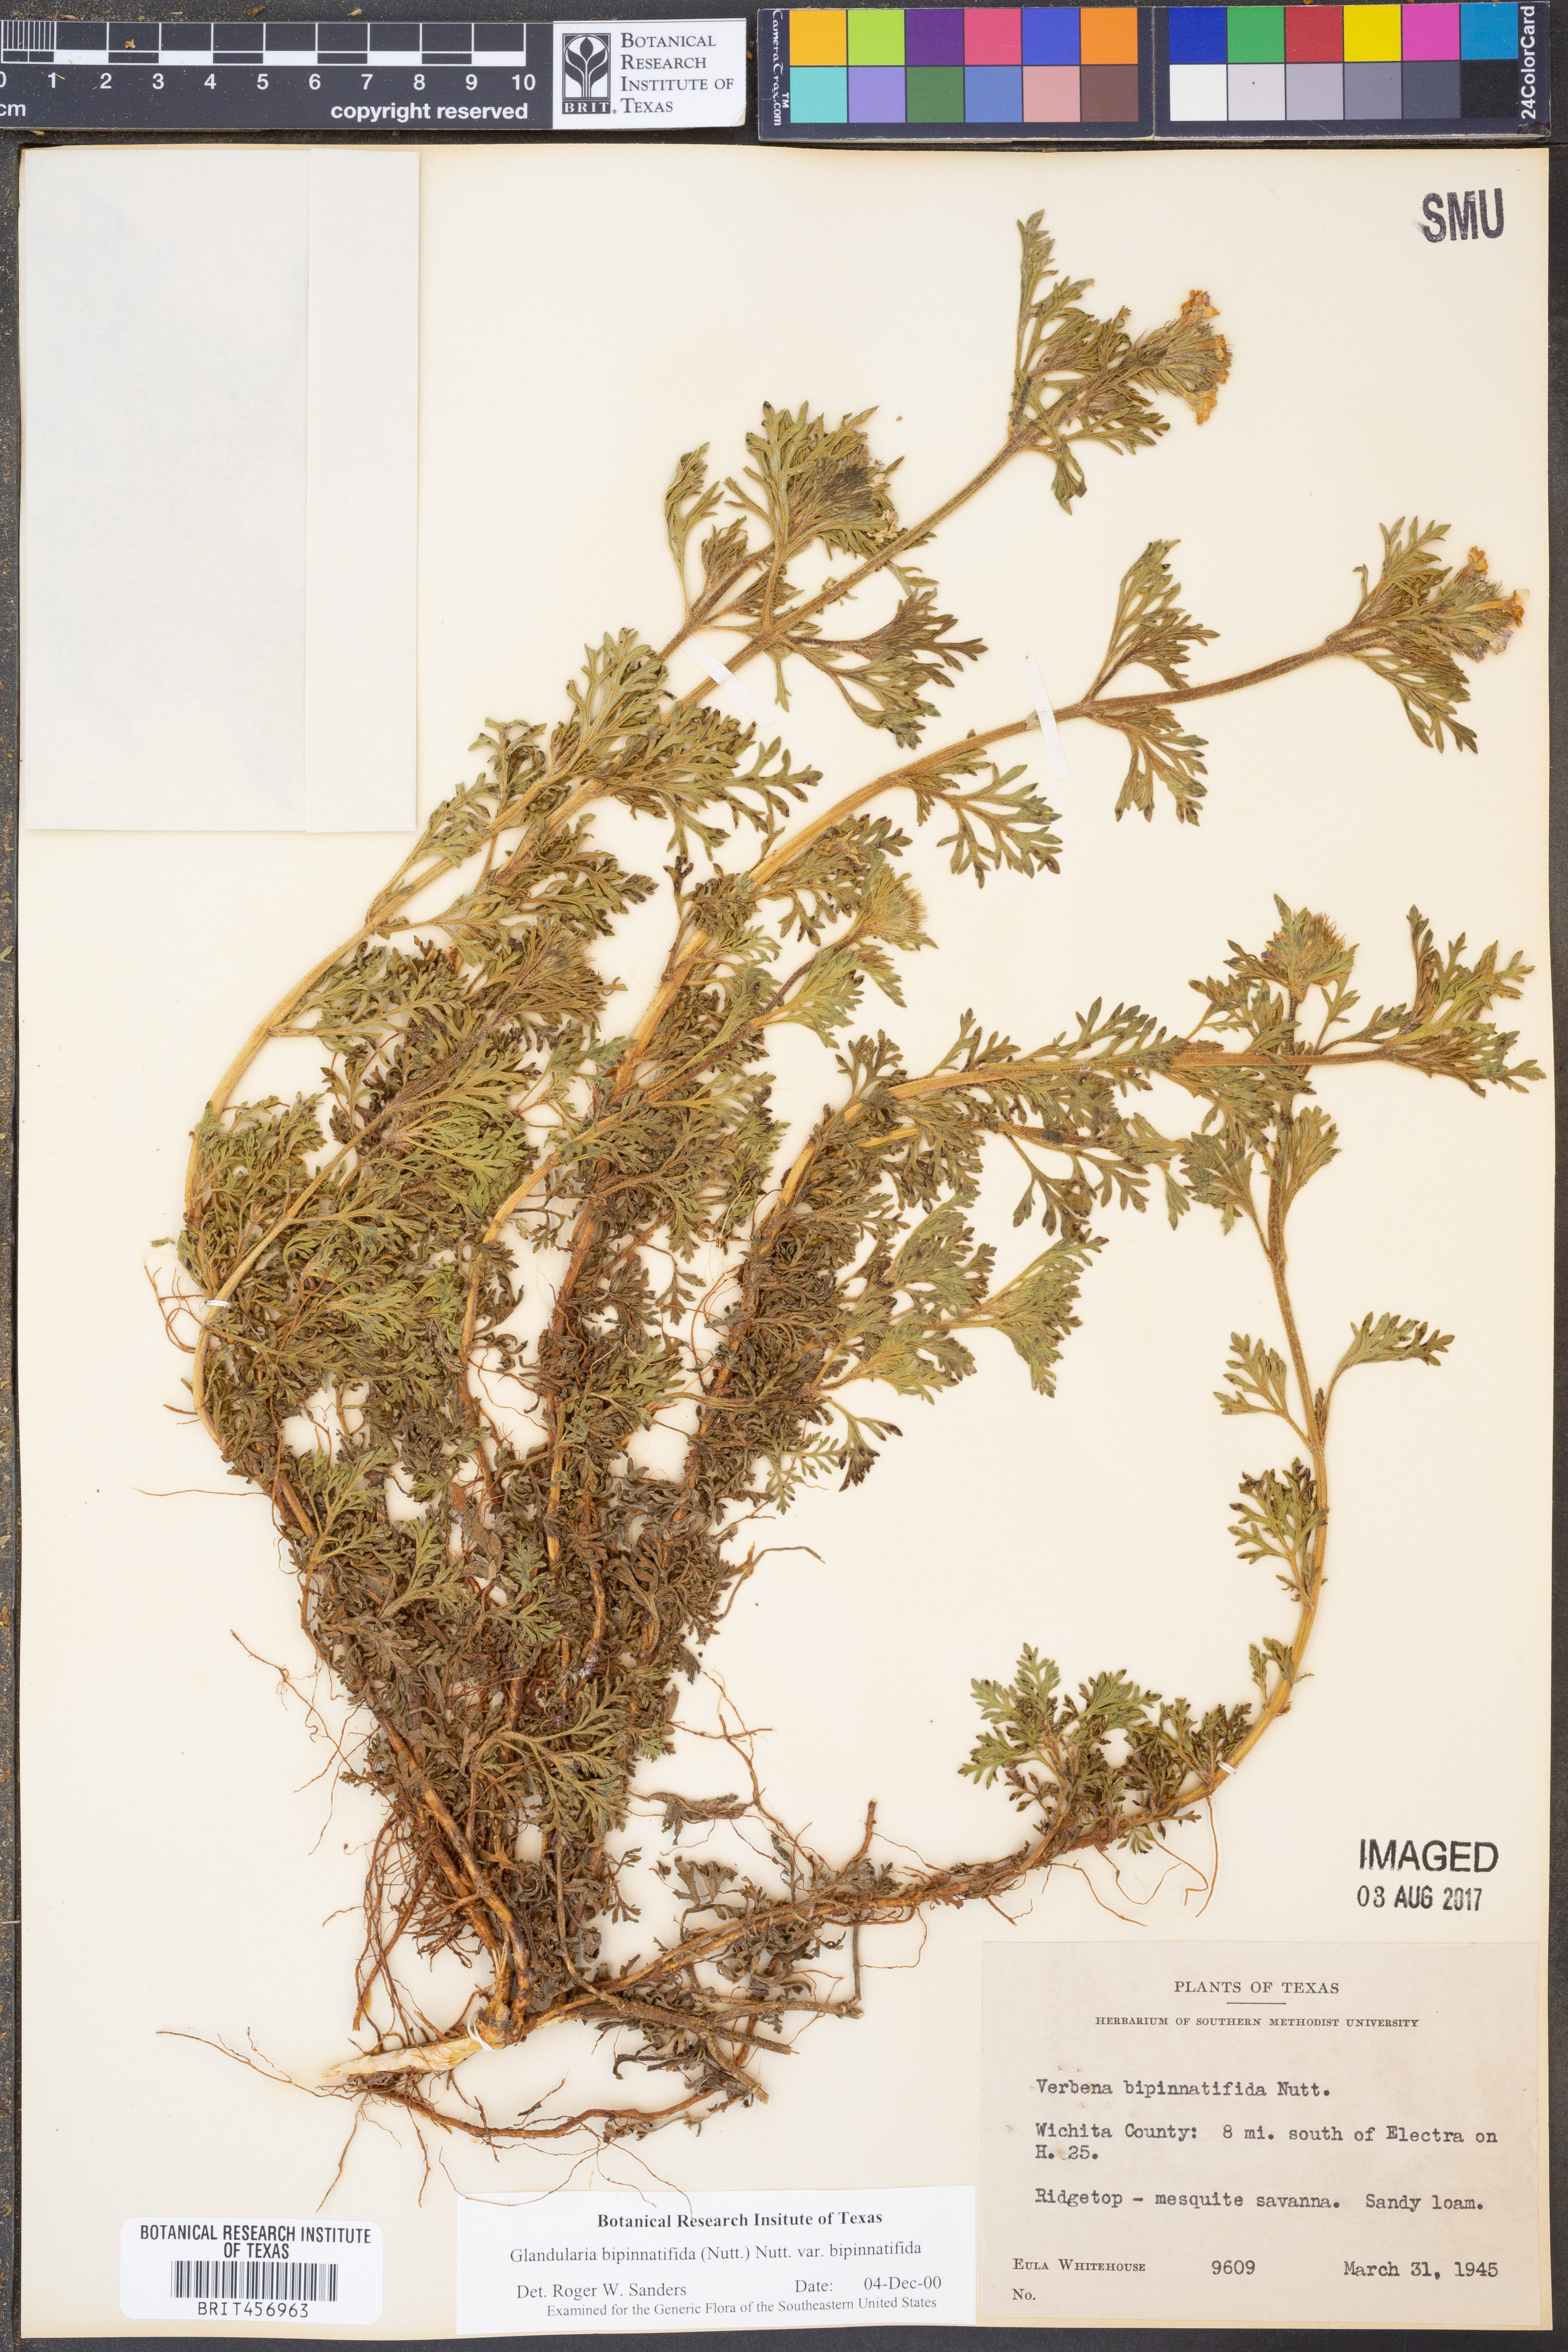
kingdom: Plantae
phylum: Tracheophyta
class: Magnoliopsida
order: Lamiales
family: Verbenaceae
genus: Verbena
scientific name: Verbena bipinnatifida
